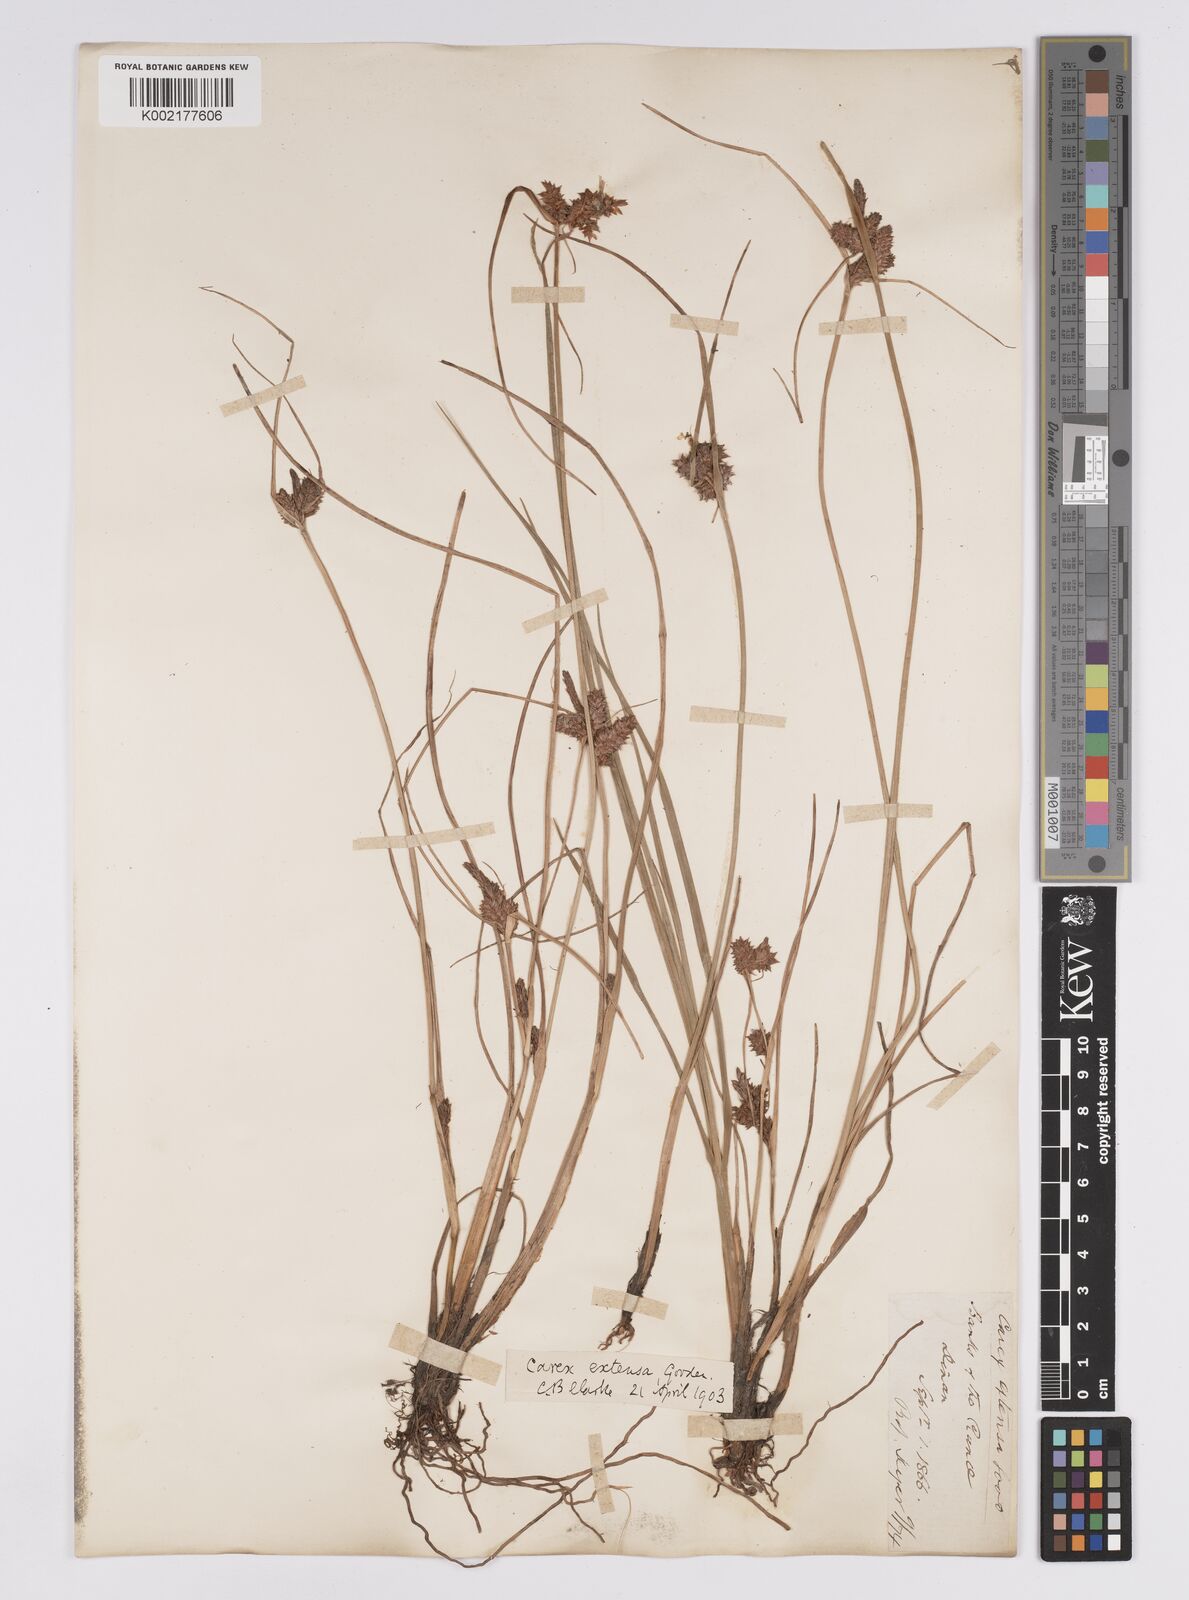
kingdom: Plantae
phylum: Tracheophyta
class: Liliopsida
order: Poales
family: Cyperaceae
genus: Carex
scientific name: Carex extensa
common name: Long-bracted sedge
